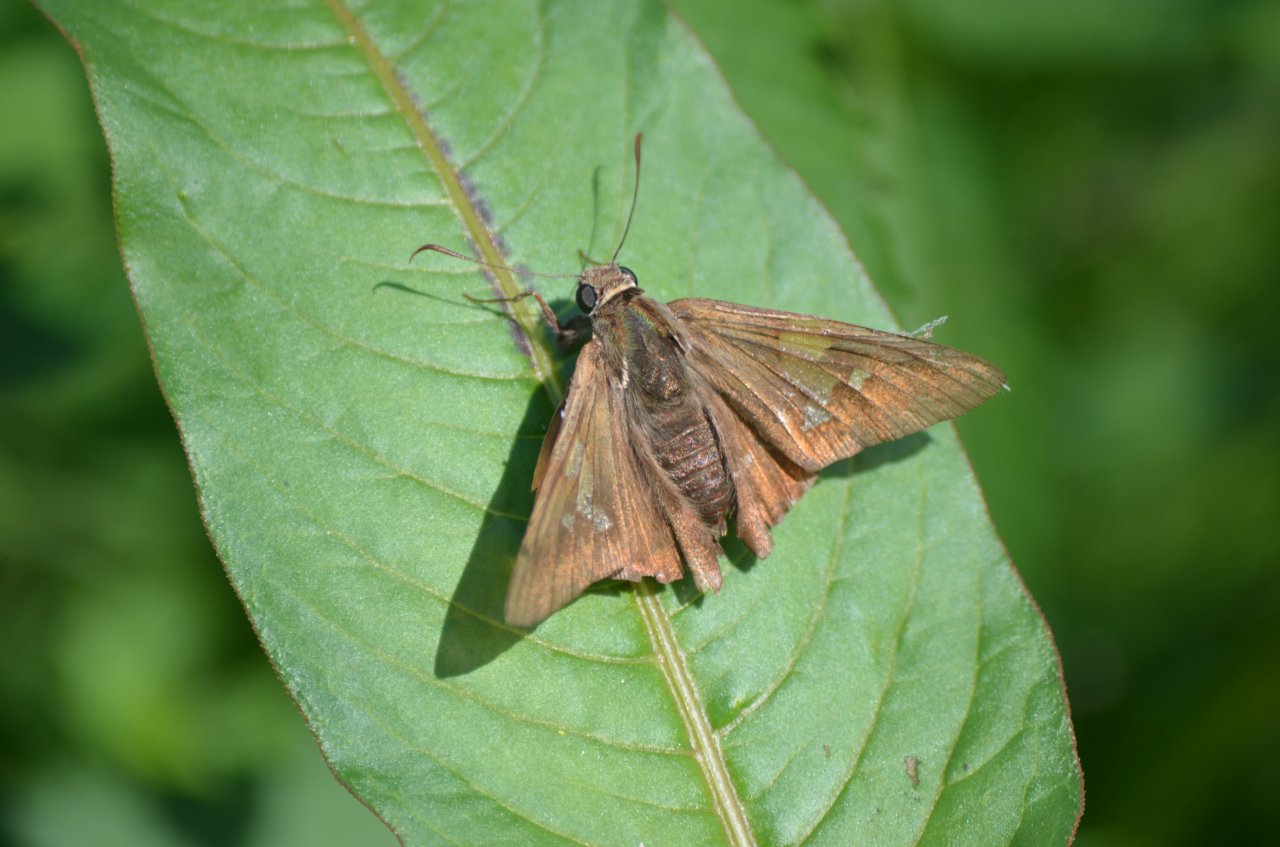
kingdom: Animalia
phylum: Arthropoda
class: Insecta
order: Lepidoptera
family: Hesperiidae
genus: Epargyreus
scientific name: Epargyreus clarus
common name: Silver-spotted Skipper
